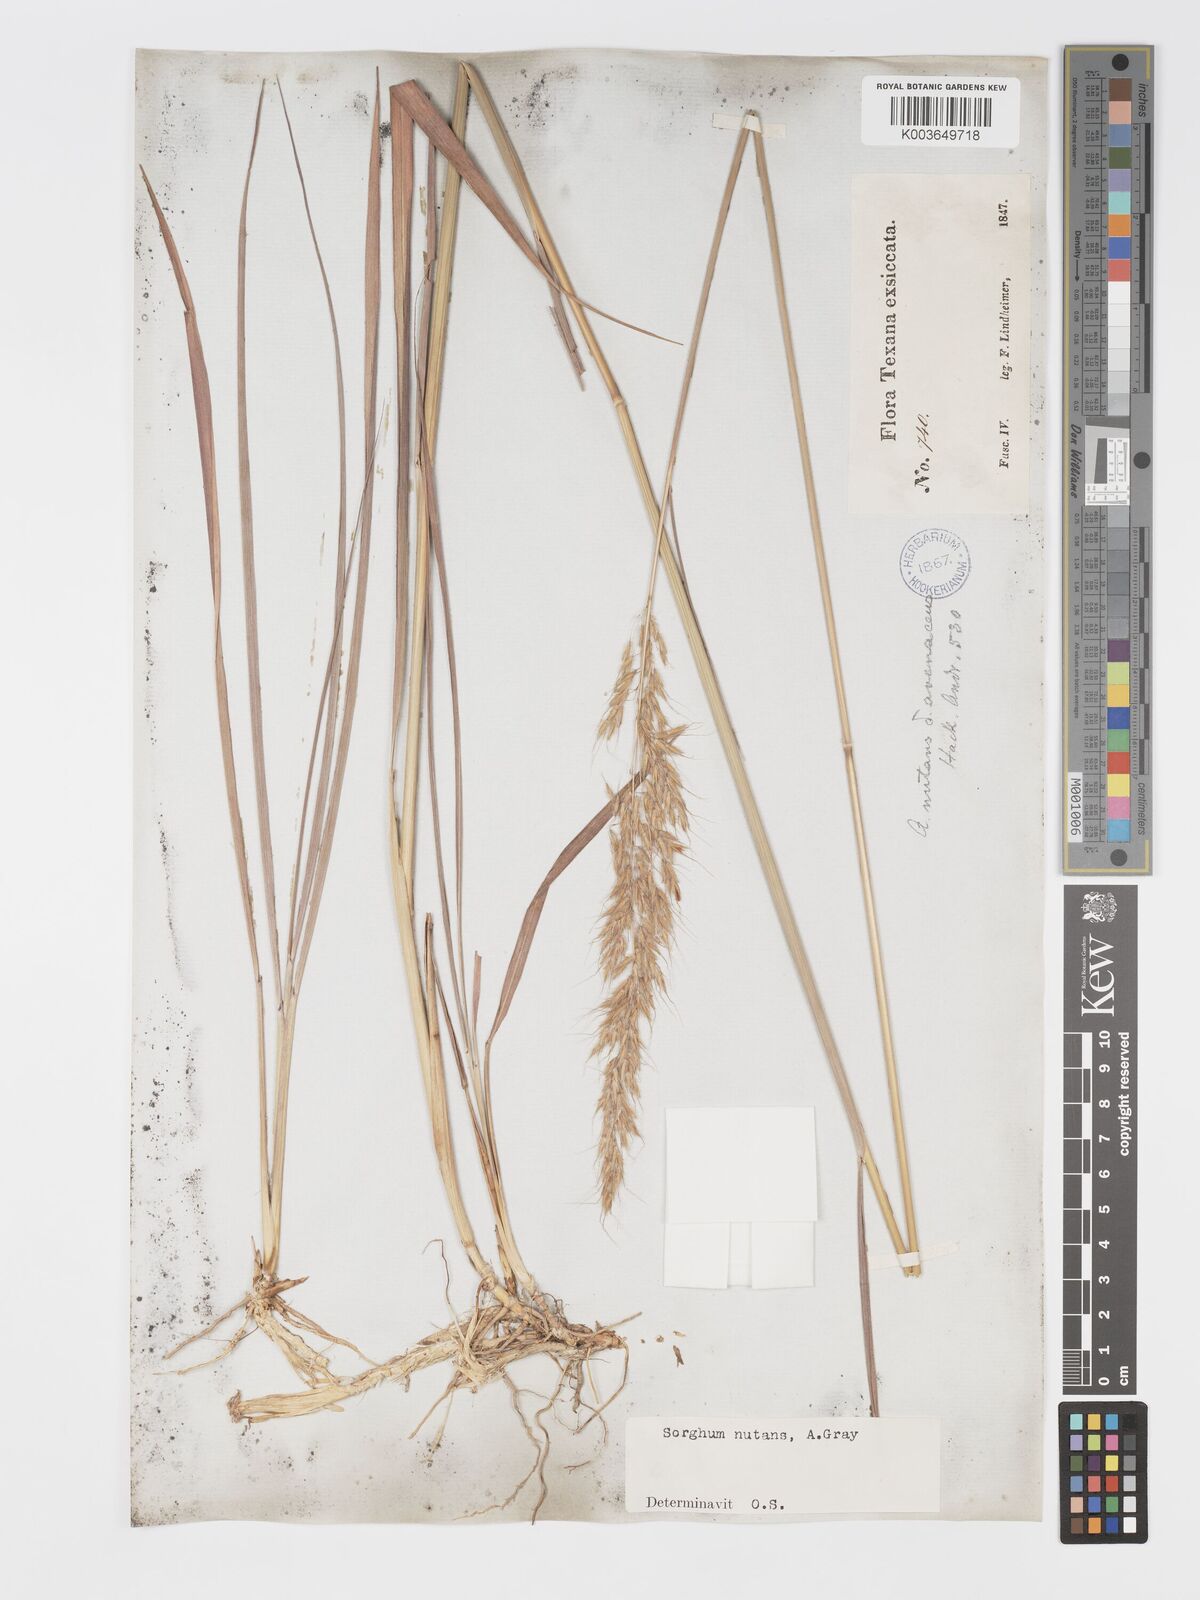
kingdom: Plantae
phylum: Tracheophyta
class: Liliopsida
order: Poales
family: Poaceae
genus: Sorghastrum
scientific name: Sorghastrum nutans
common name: Indian grass
